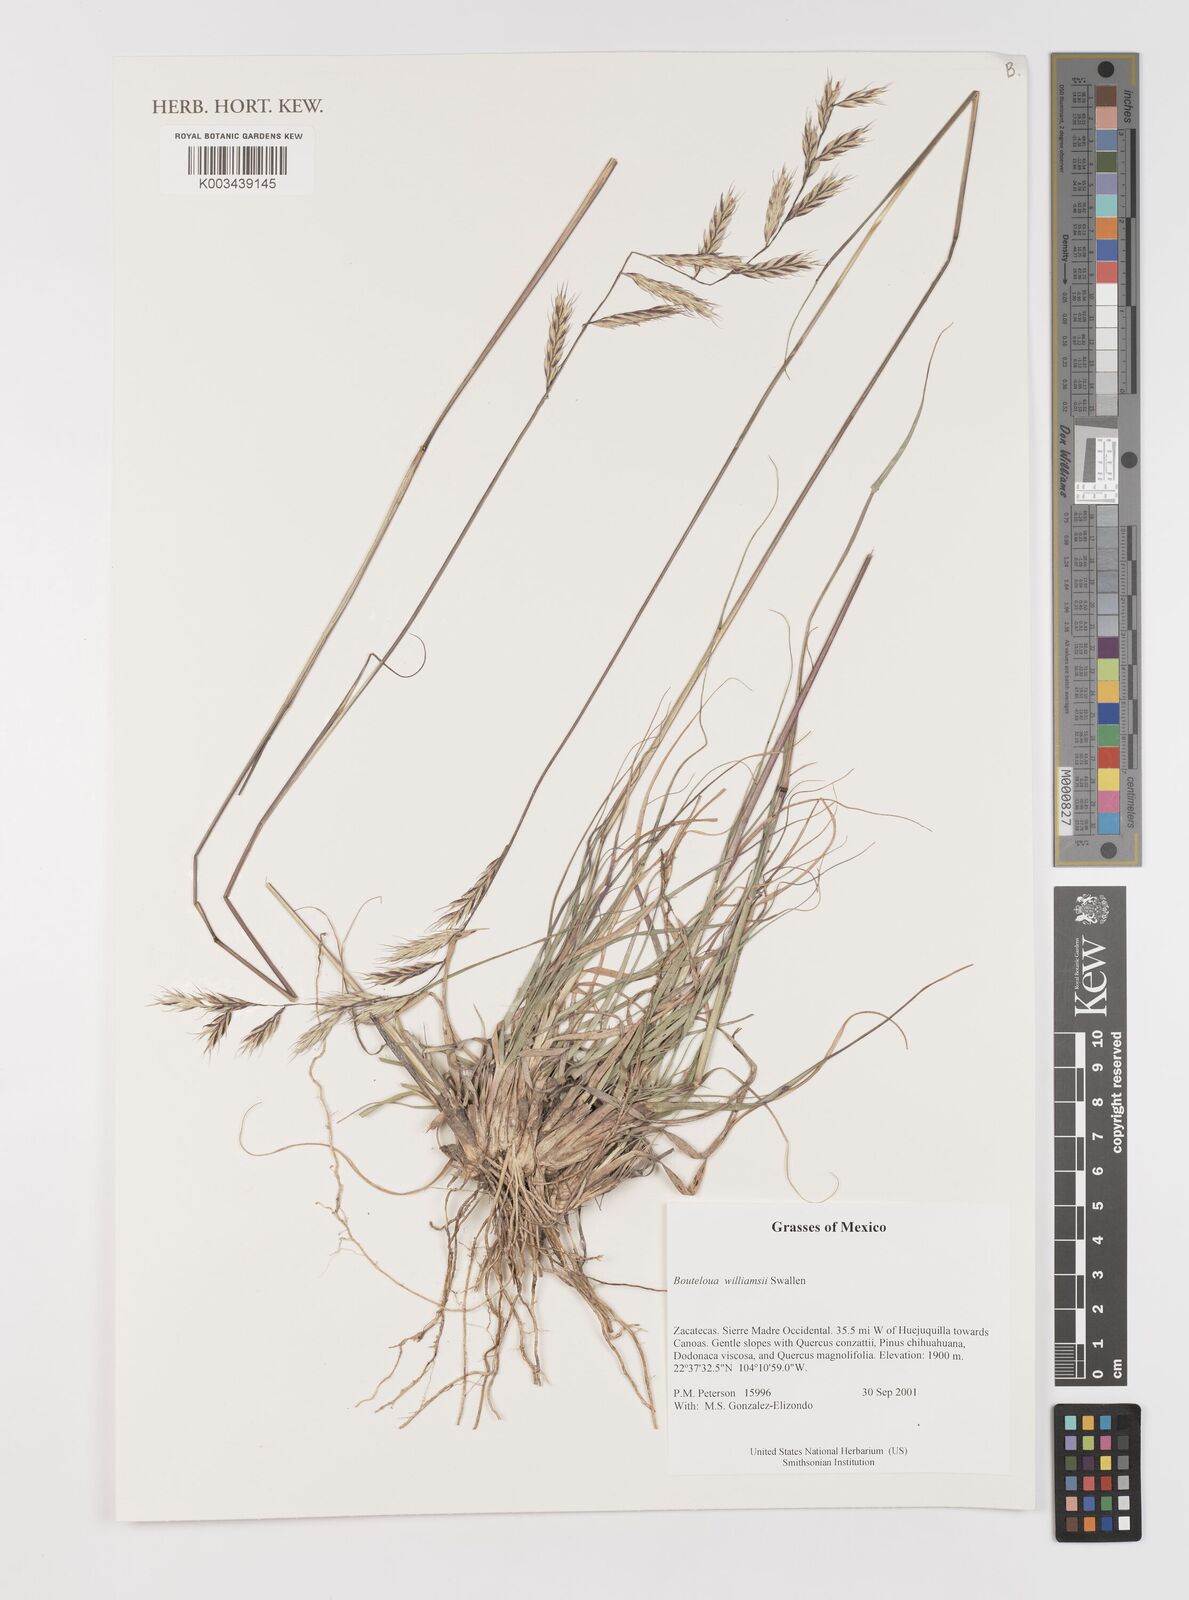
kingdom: Plantae
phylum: Tracheophyta
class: Liliopsida
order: Poales
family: Poaceae
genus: Bouteloua
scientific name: Bouteloua williamsii
